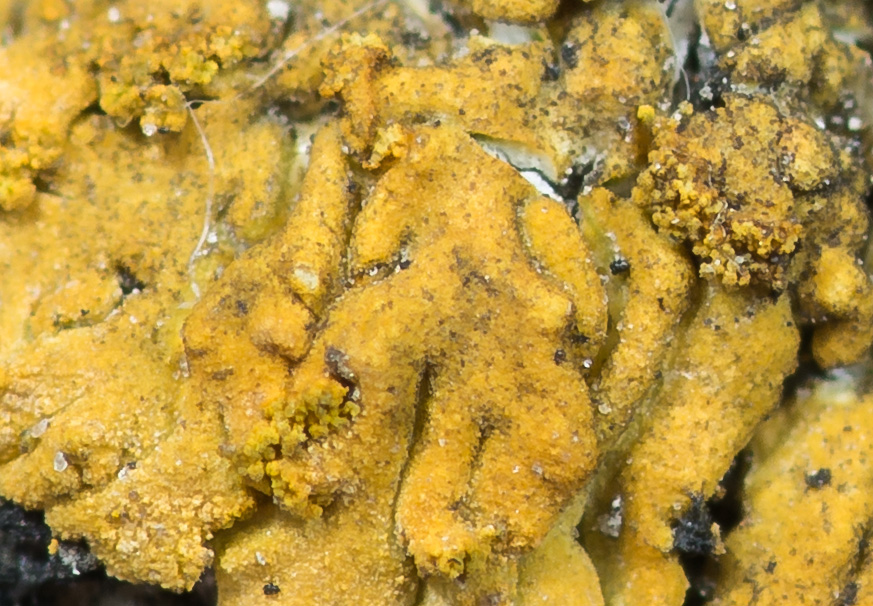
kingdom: Fungi
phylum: Ascomycota
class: Lecanoromycetes
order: Teloschistales
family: Teloschistaceae
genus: Calogaya
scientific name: Calogaya decipiens
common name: knudret orangelav
